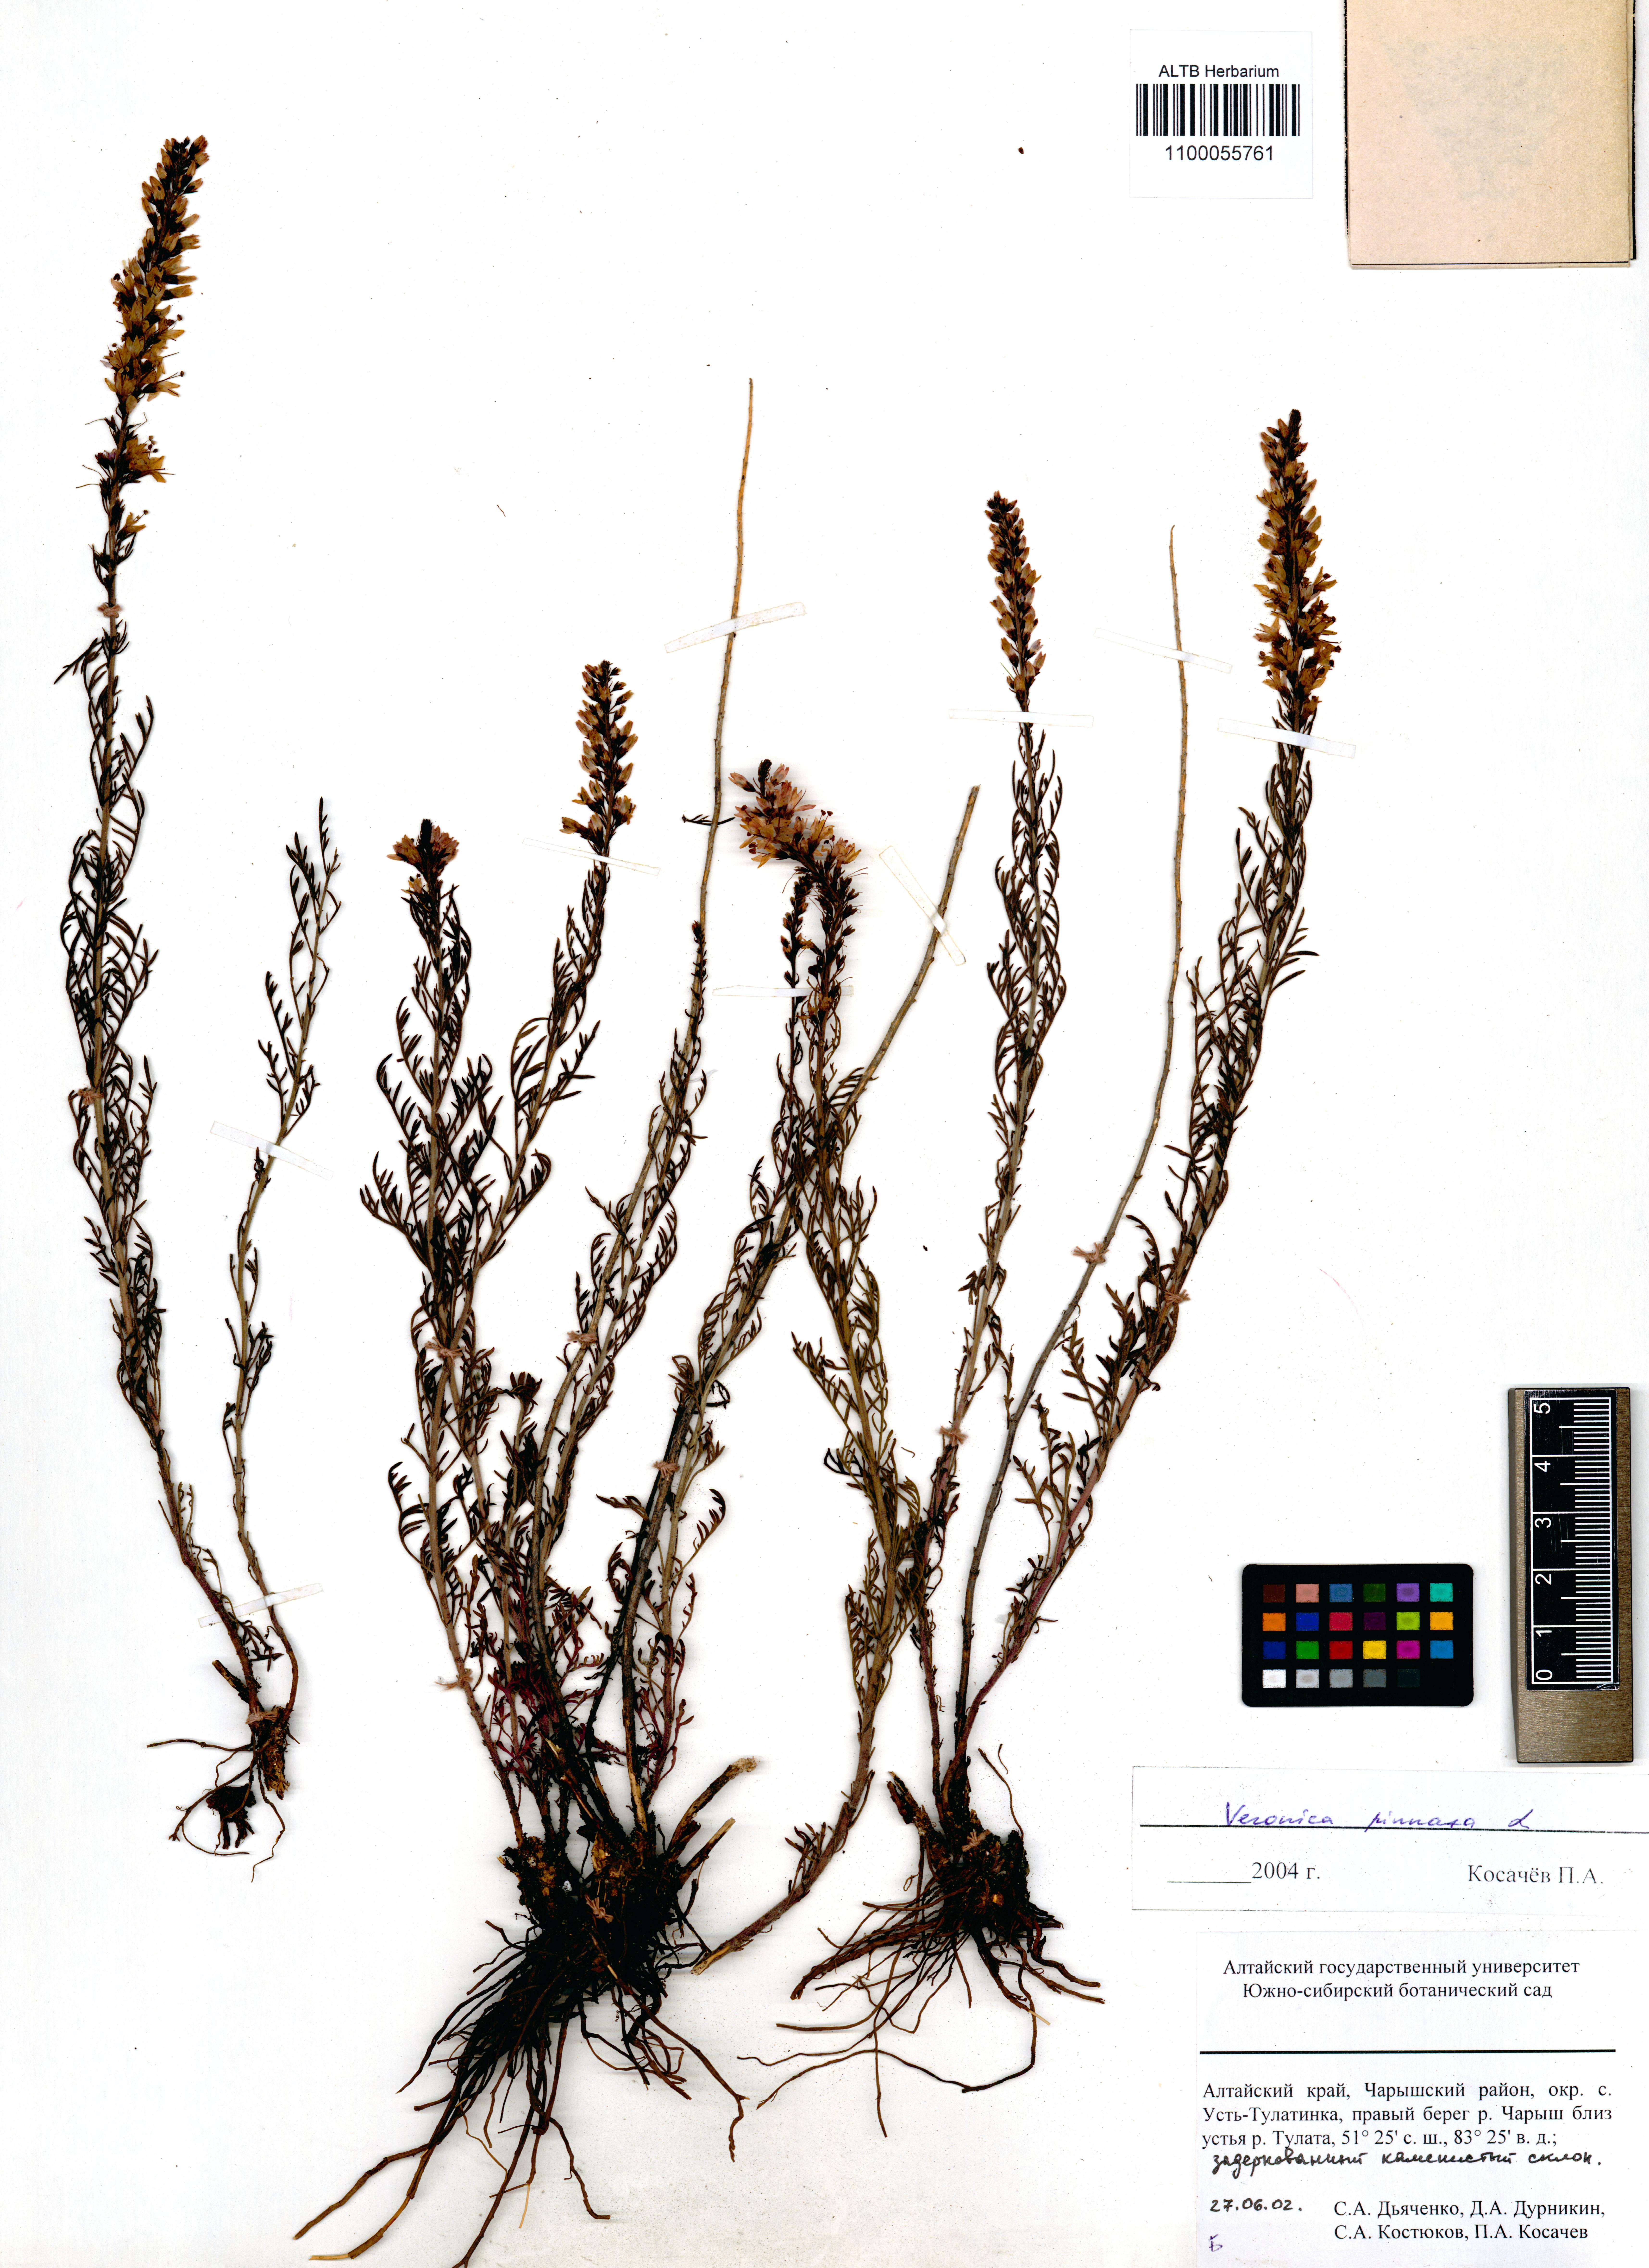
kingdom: Plantae
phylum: Tracheophyta
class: Magnoliopsida
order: Lamiales
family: Plantaginaceae
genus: Veronica
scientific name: Veronica pinnata
